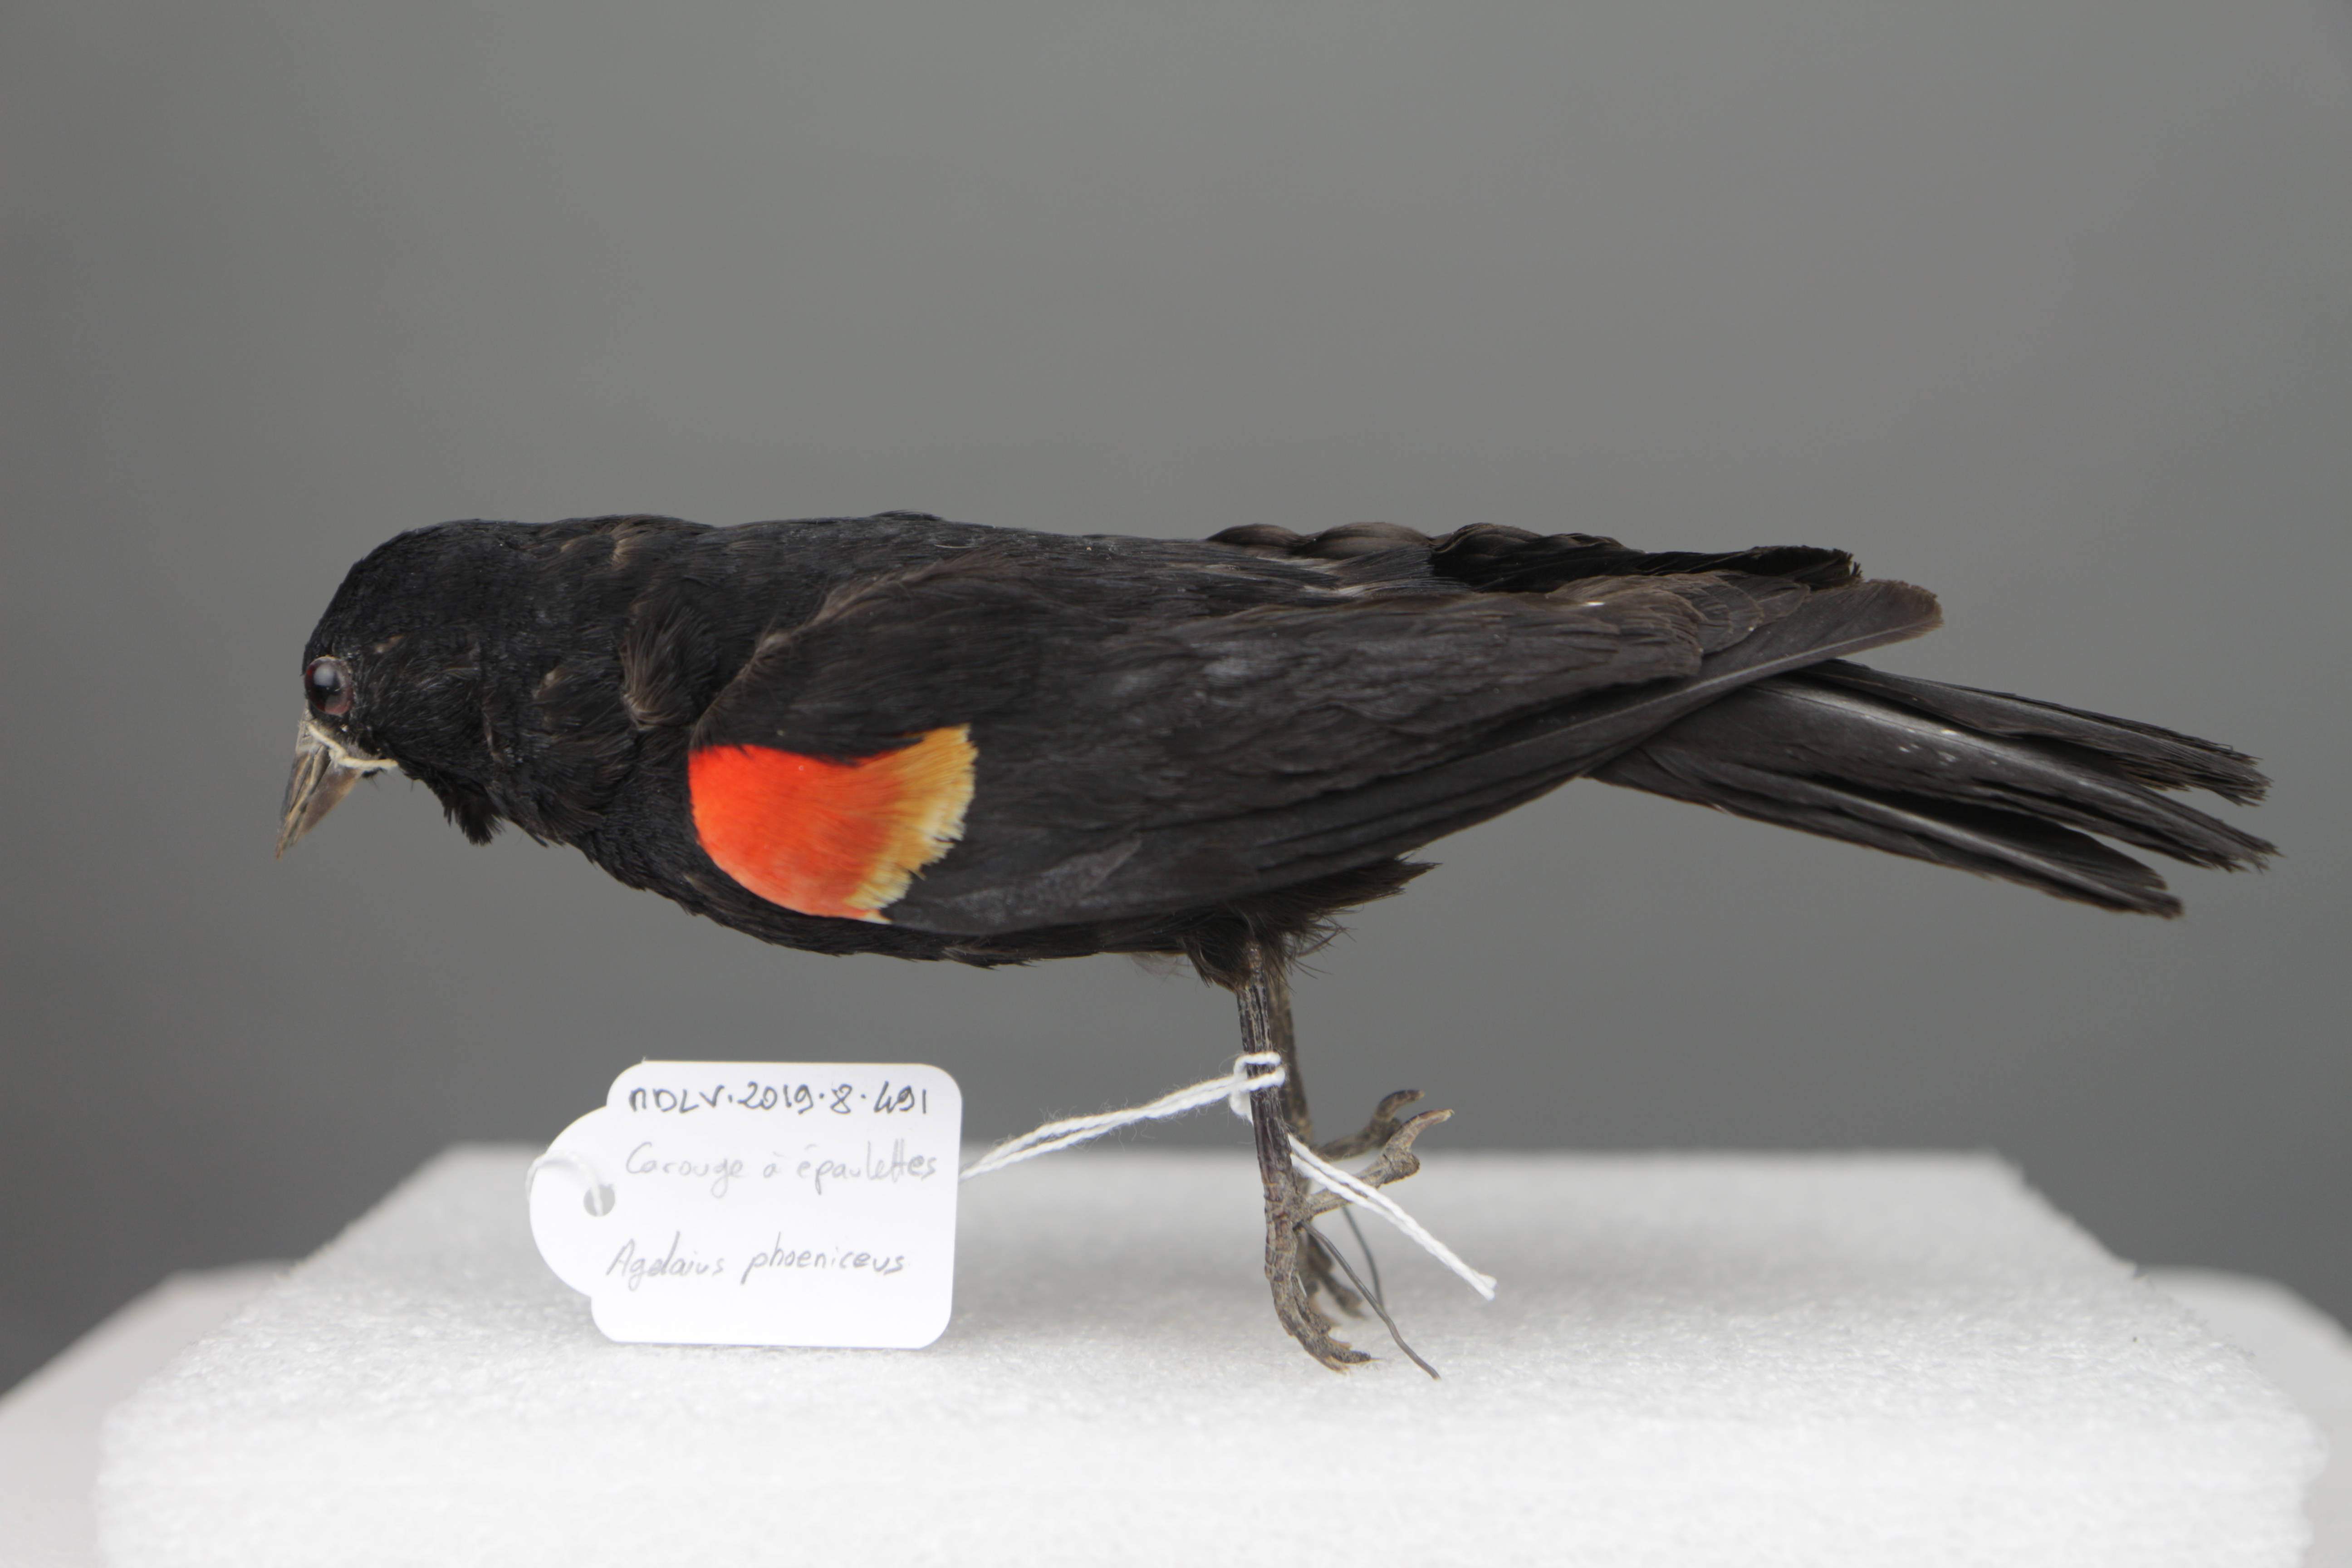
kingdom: Animalia
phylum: Chordata
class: Aves
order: Passeriformes
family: Icteridae
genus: Agelaius
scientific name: Agelaius phoeniceus
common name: Red-winged blackbird
